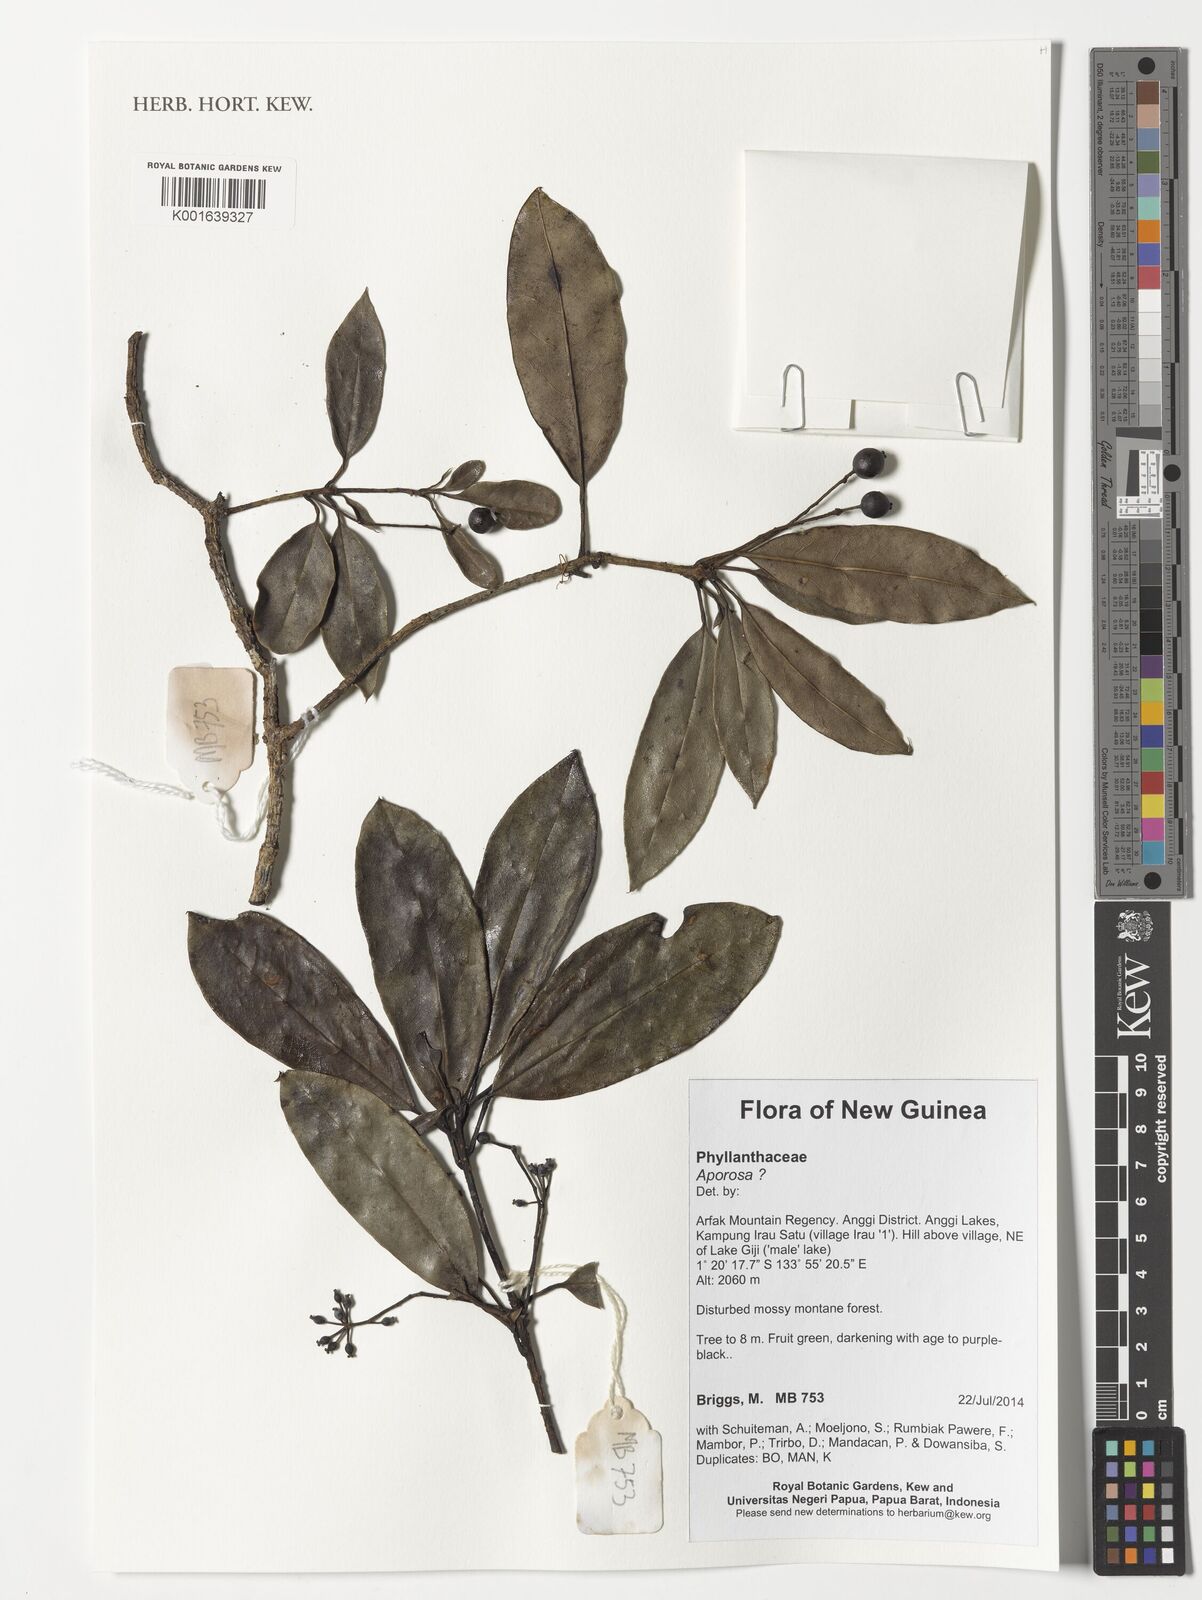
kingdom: Plantae
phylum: Tracheophyta
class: Magnoliopsida
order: Malpighiales
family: Phyllanthaceae
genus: Aporosa
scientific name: Aporosa
